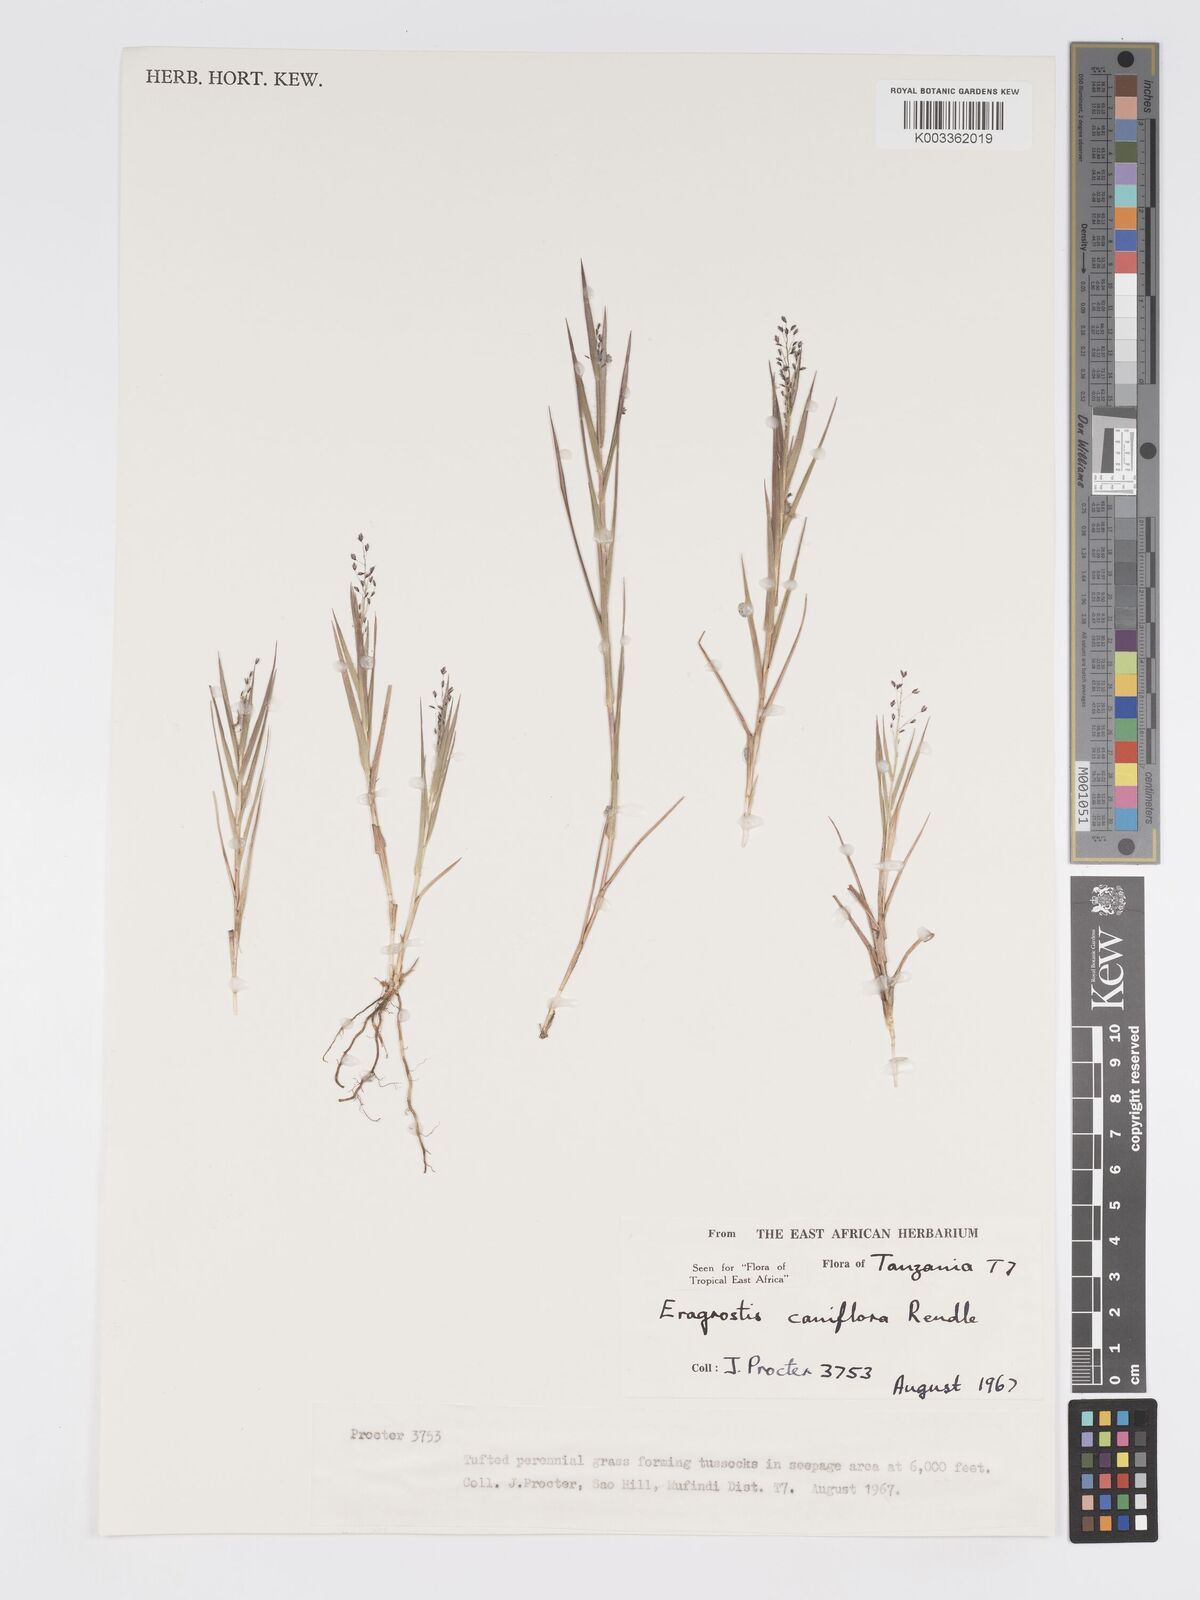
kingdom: Plantae
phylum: Tracheophyta
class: Liliopsida
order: Poales
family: Poaceae
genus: Eragrostis
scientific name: Eragrostis caniflora
